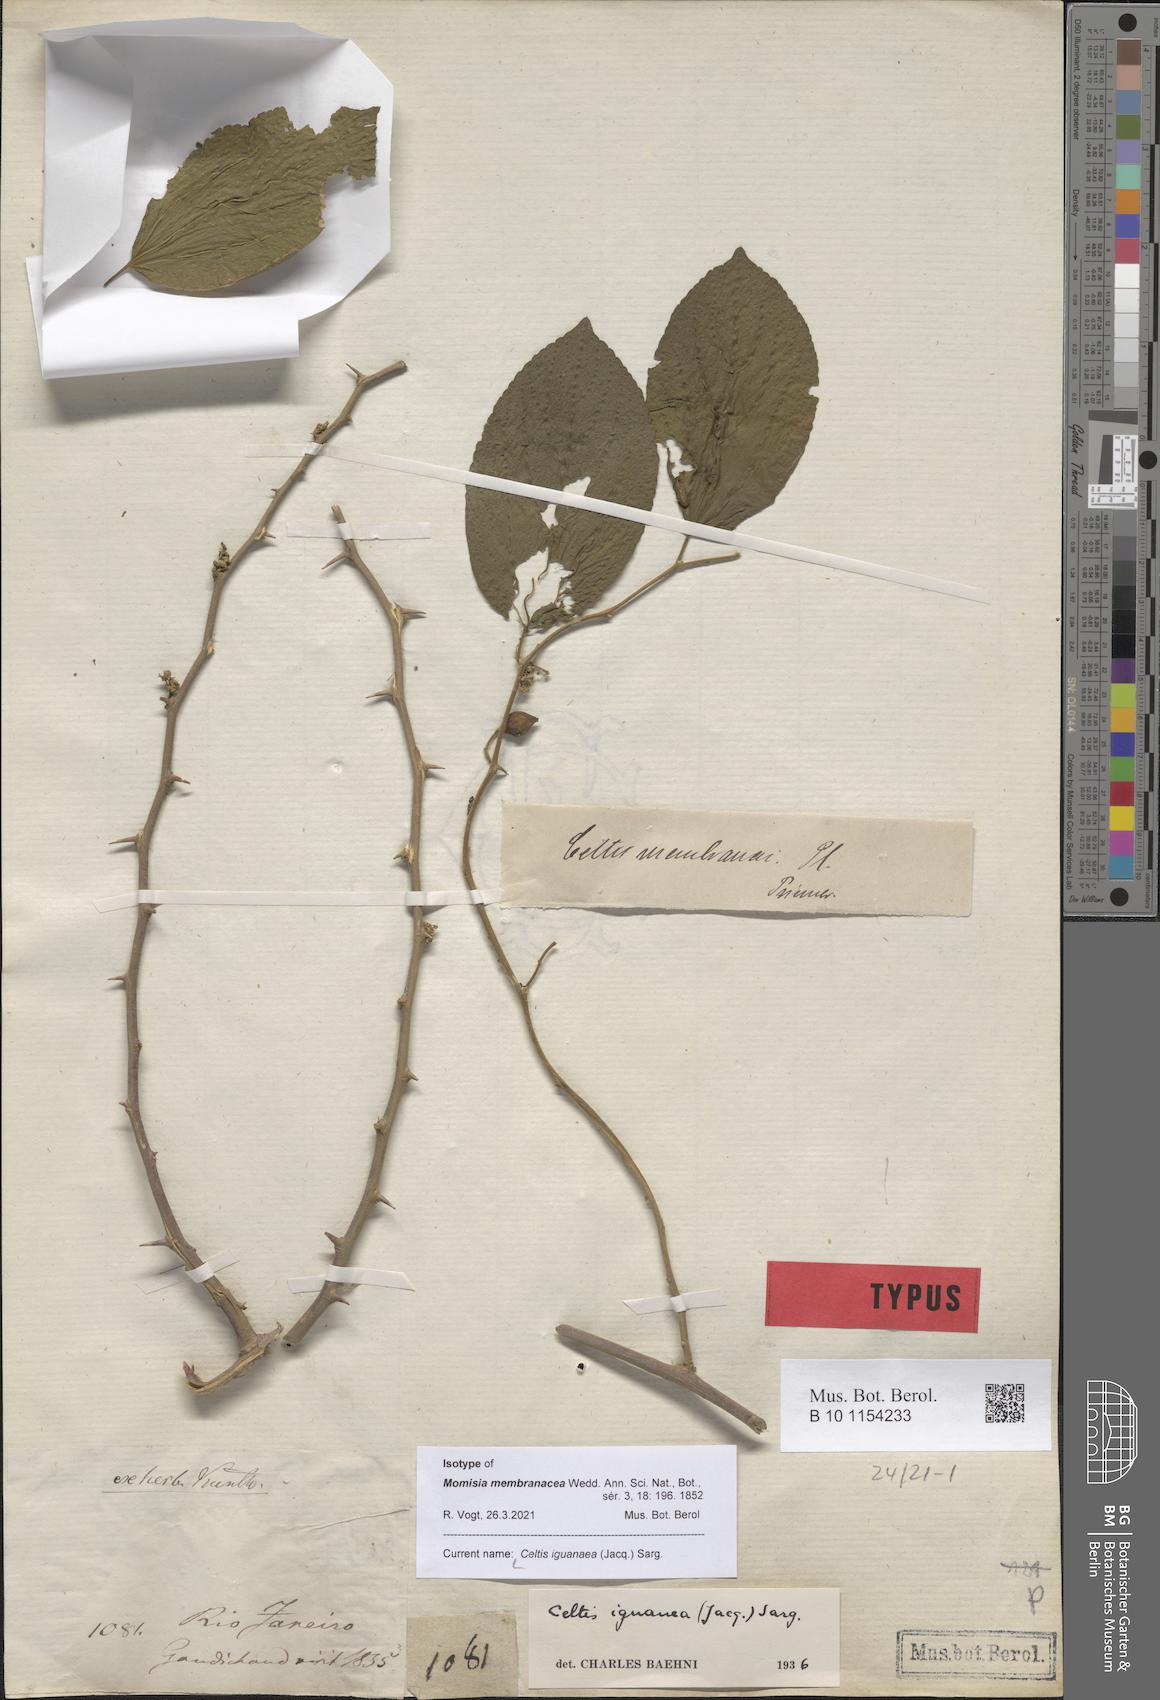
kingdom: Plantae
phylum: Tracheophyta
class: Magnoliopsida
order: Rosales
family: Cannabaceae
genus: Celtis
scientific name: Celtis iguanaea
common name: Iguana hackberry
